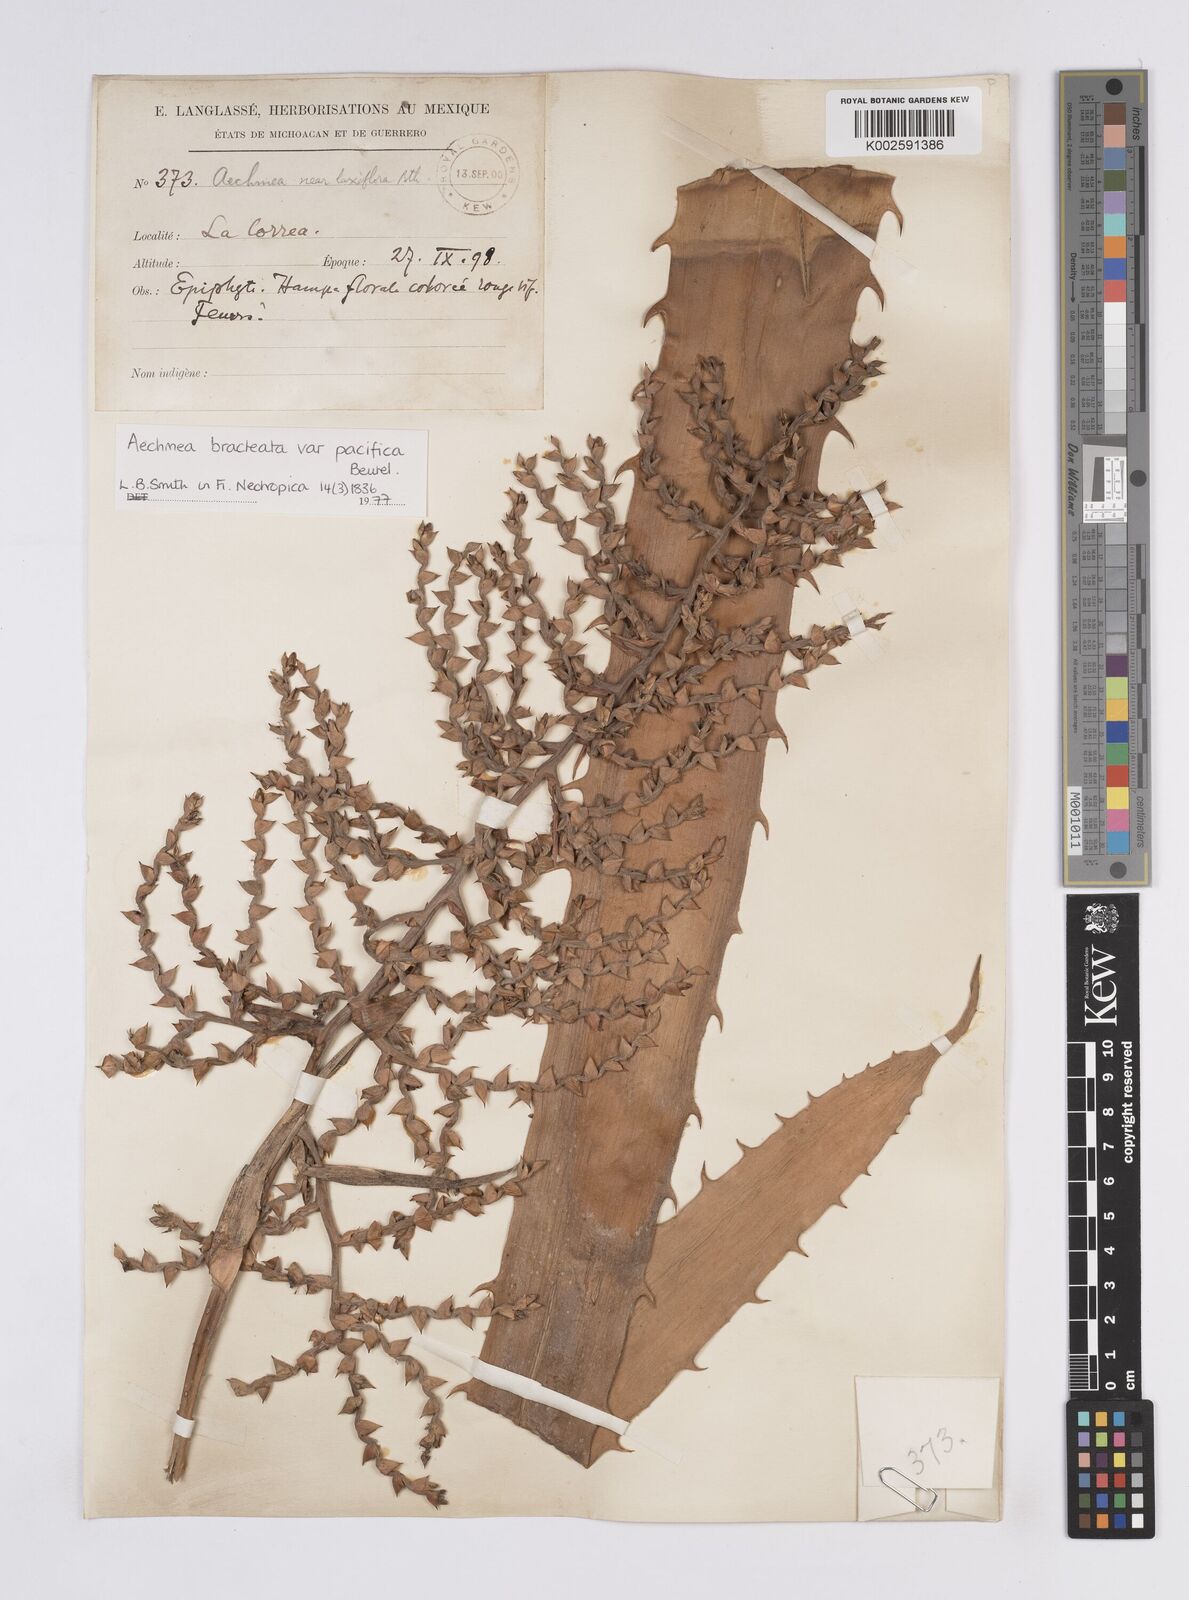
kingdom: Plantae
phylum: Tracheophyta
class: Liliopsida
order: Poales
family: Bromeliaceae
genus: Aechmea
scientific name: Aechmea bracteata
